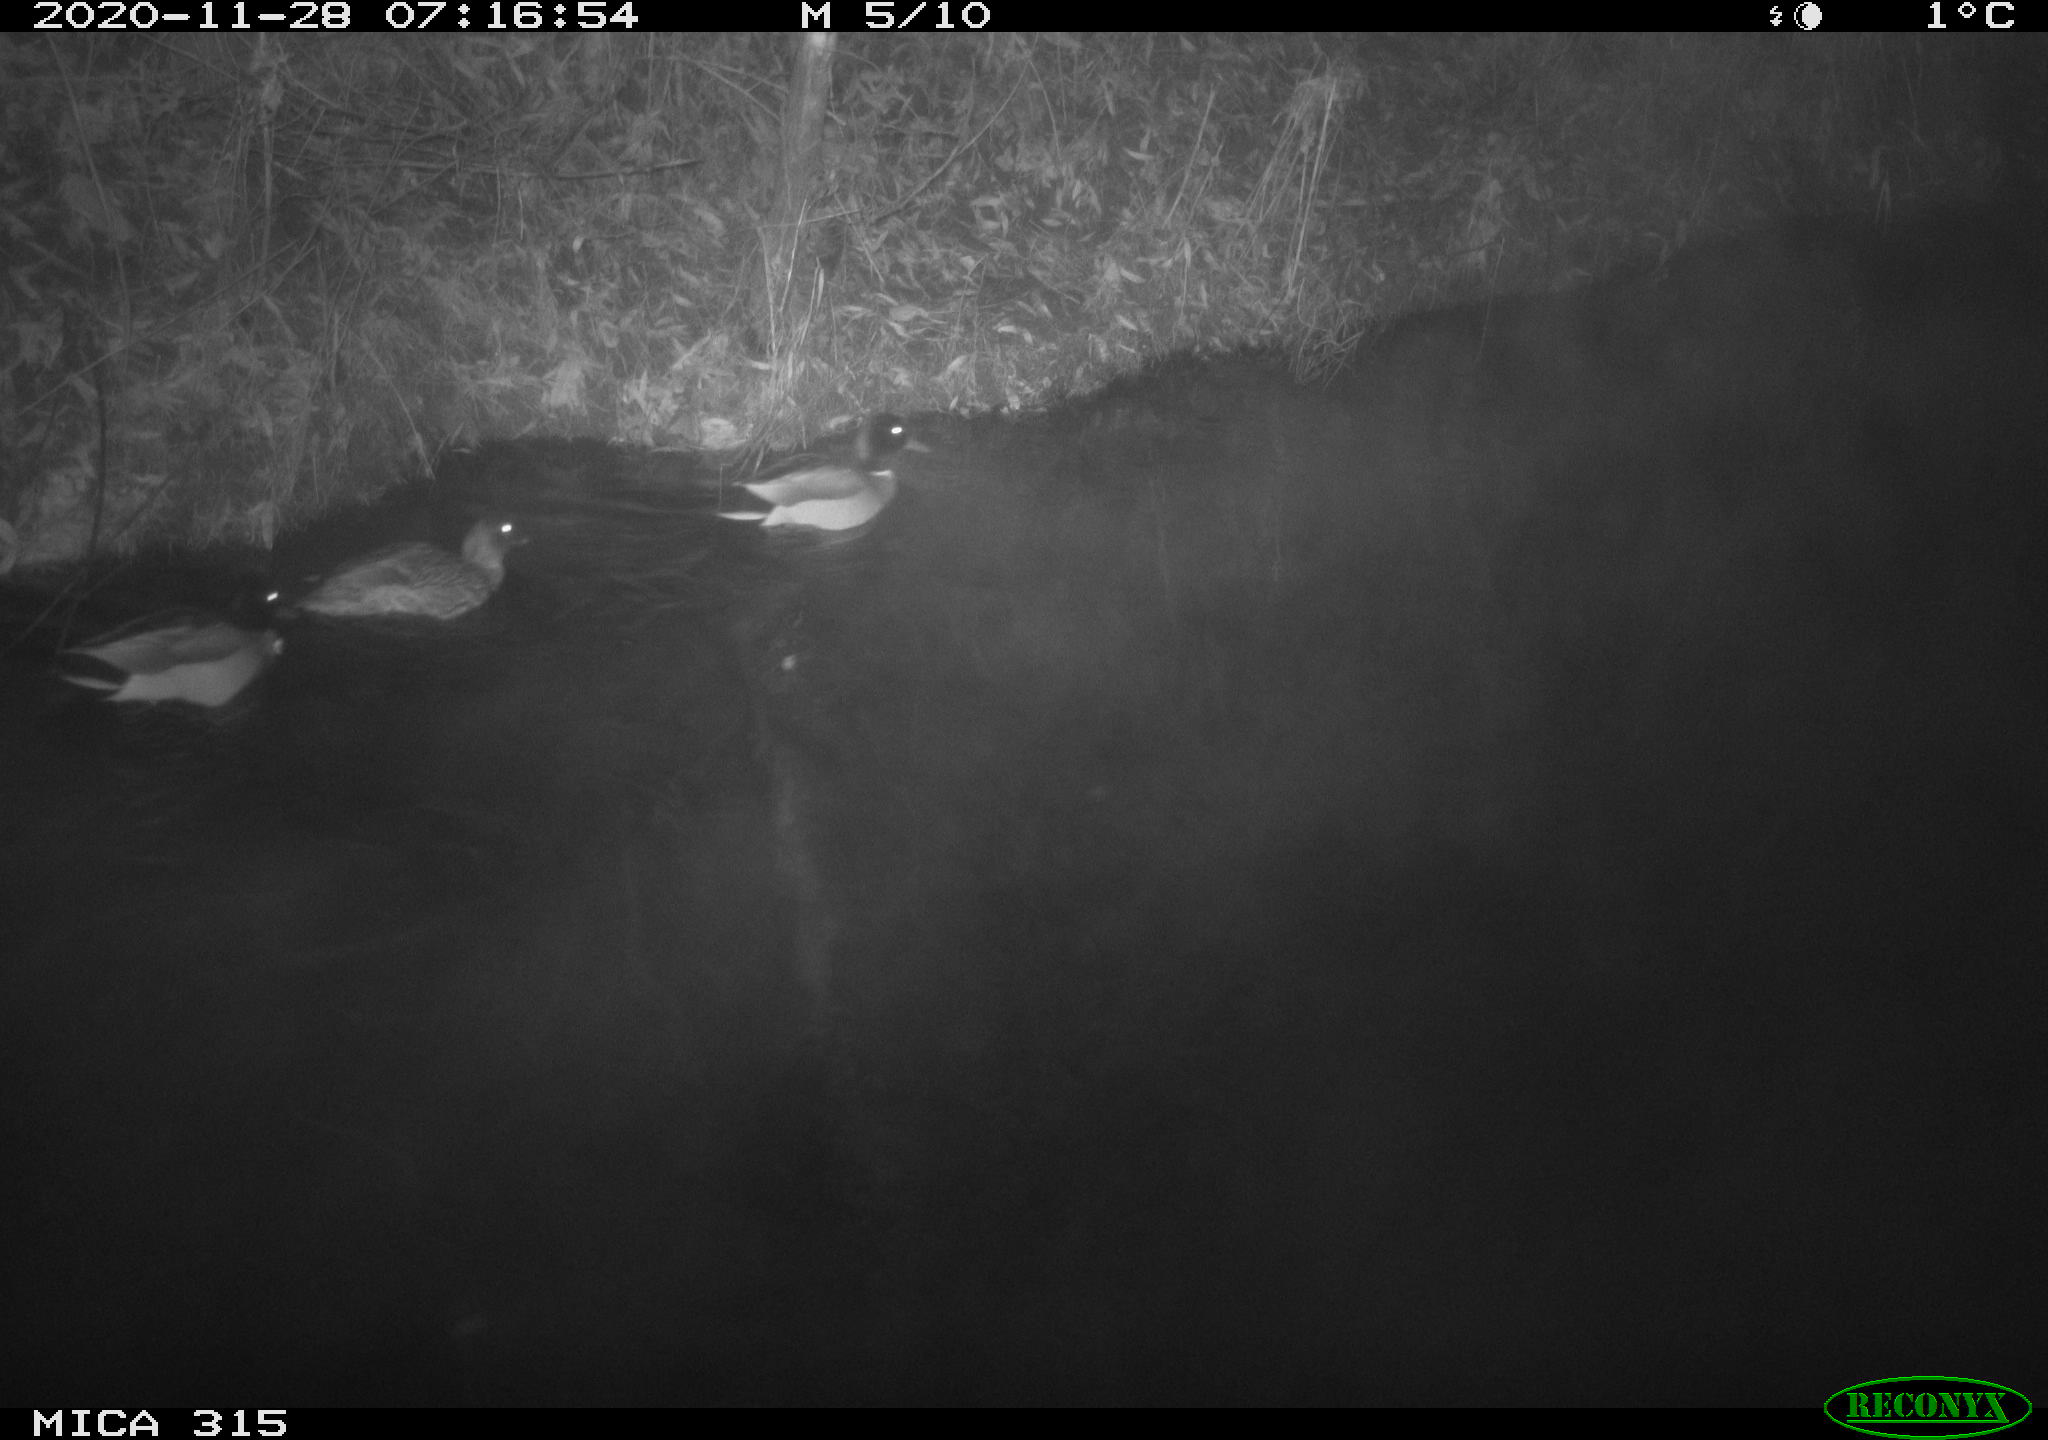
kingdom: Animalia
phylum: Chordata
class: Aves
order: Anseriformes
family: Anatidae
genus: Anas
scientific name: Anas platyrhynchos
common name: Mallard
